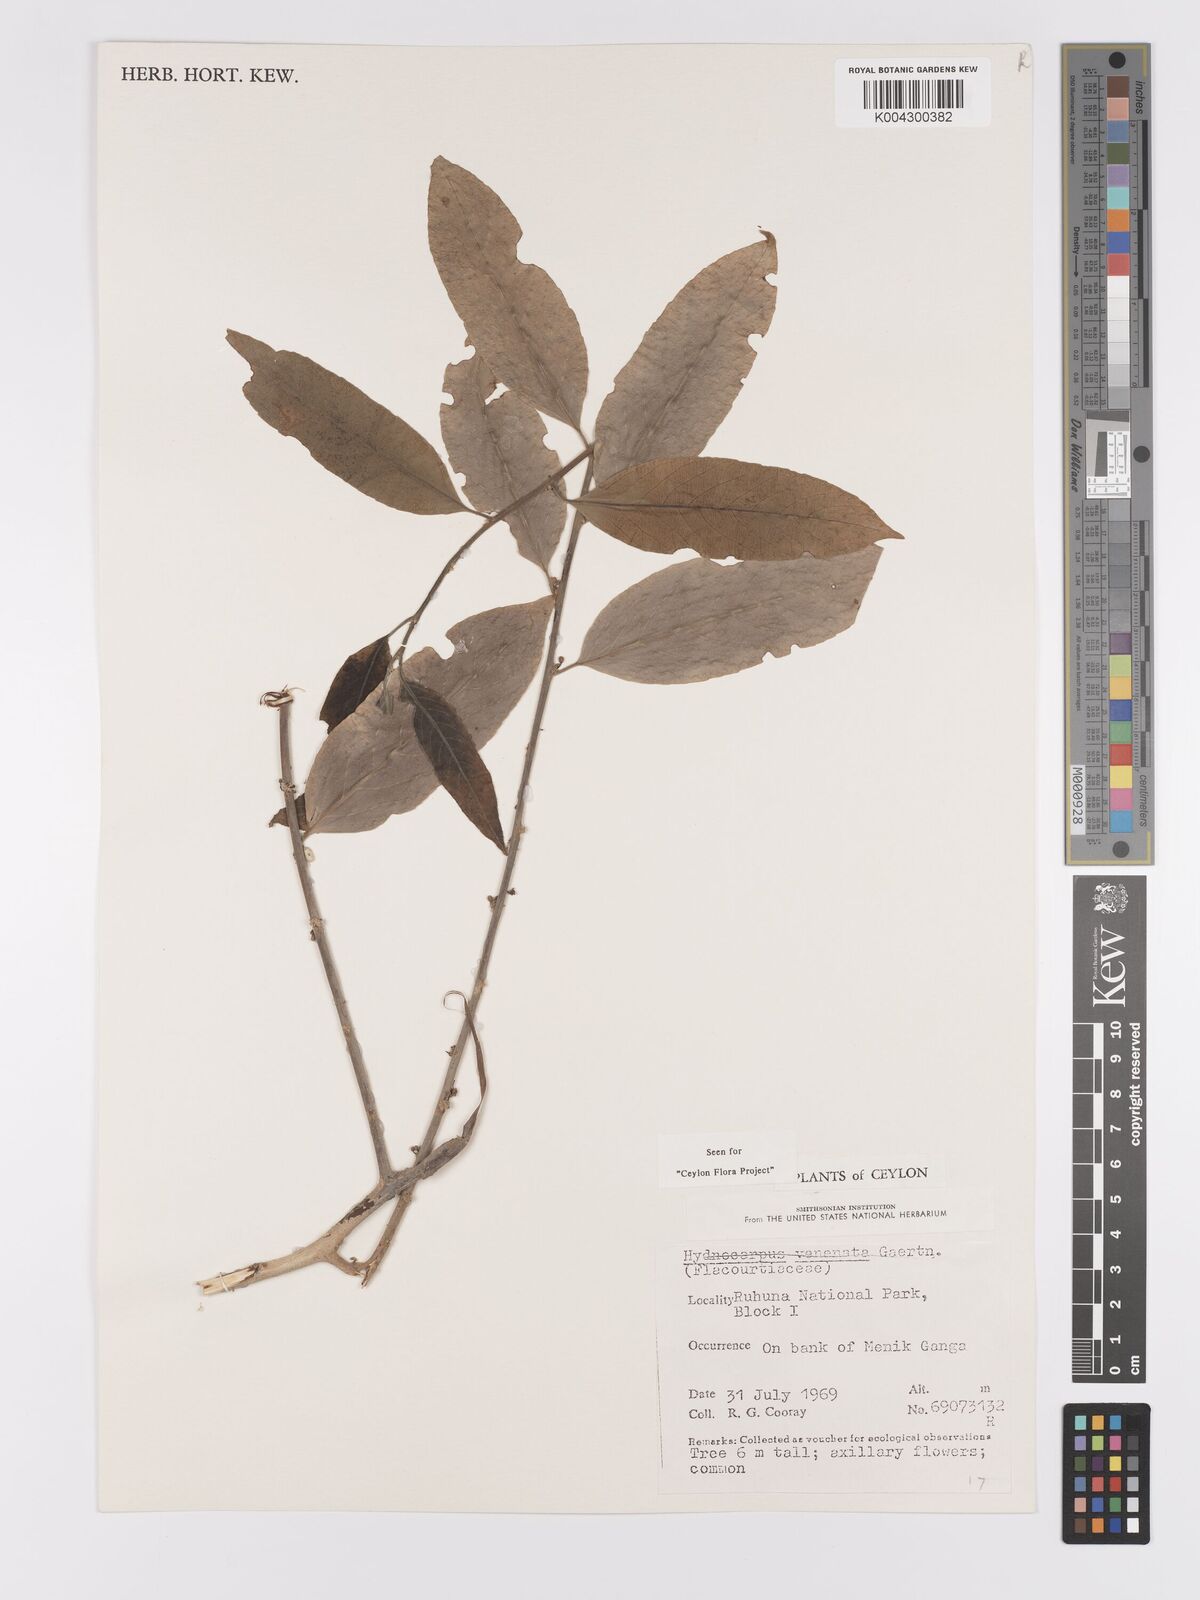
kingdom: Plantae
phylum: Tracheophyta
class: Magnoliopsida
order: Malpighiales
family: Achariaceae
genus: Hydnocarpus
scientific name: Hydnocarpus venenatus
